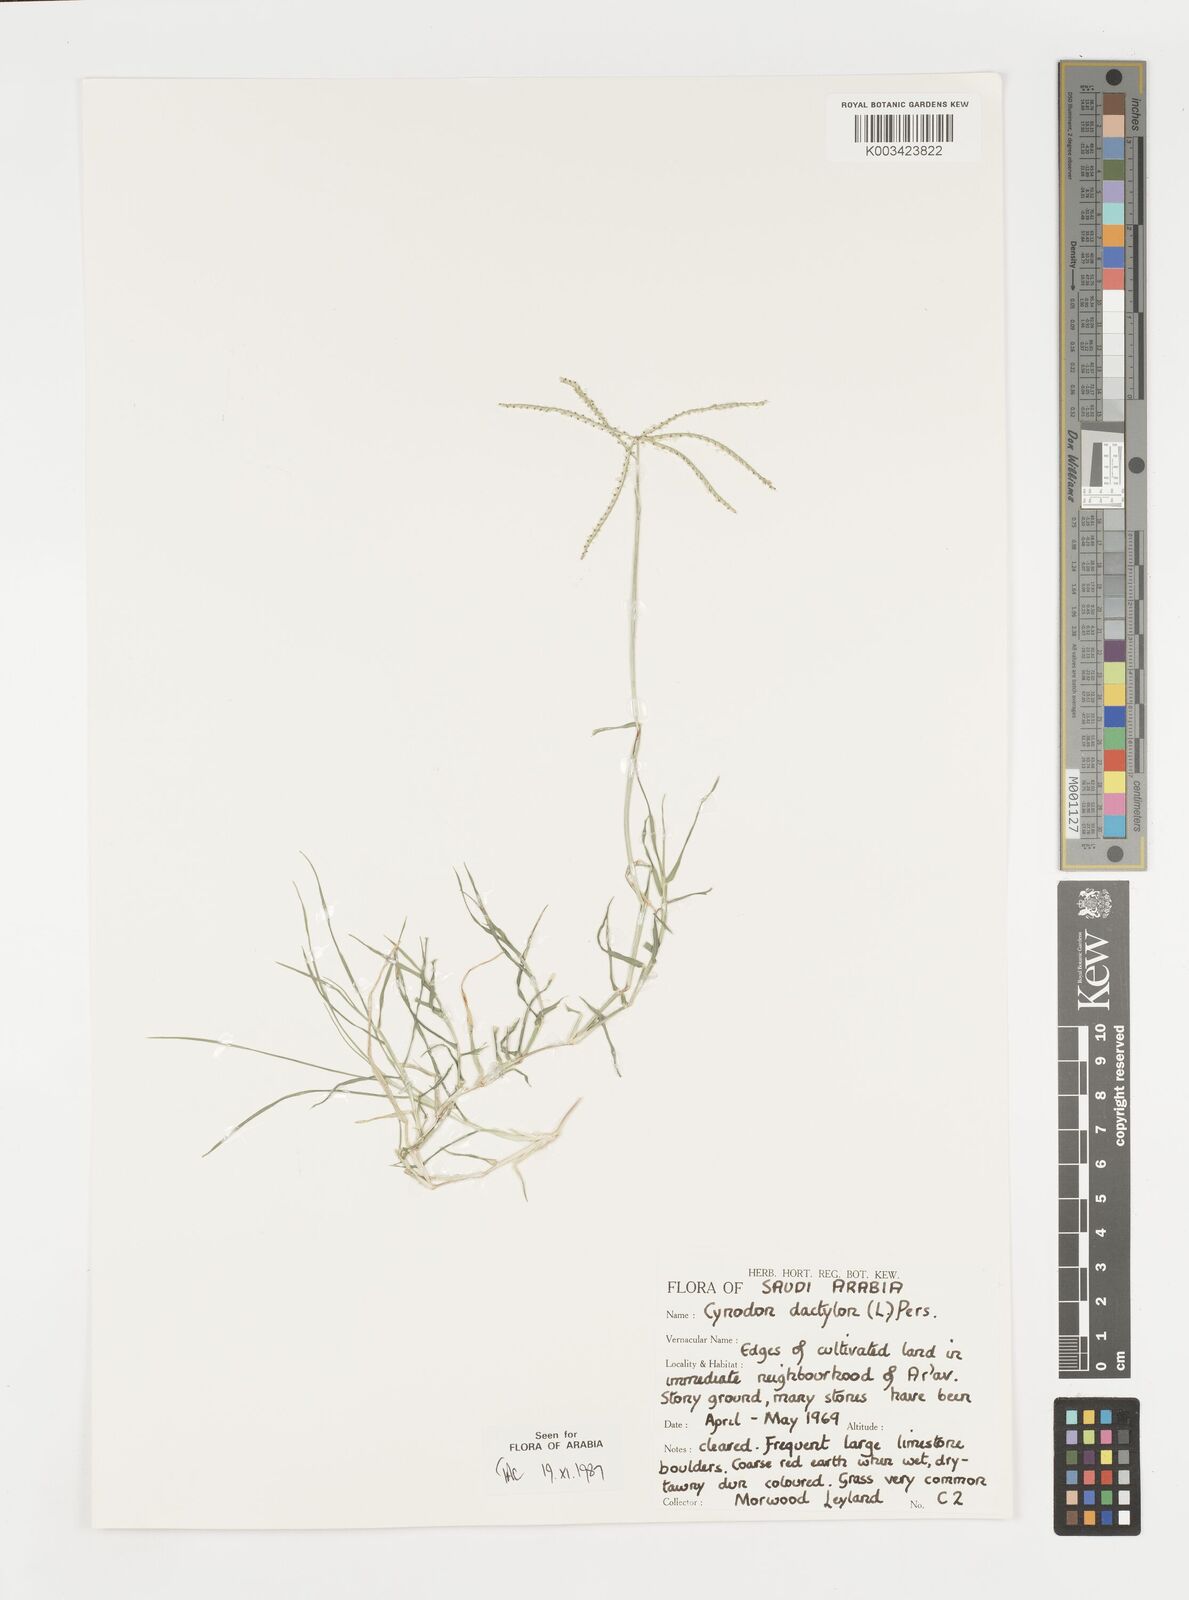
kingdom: Plantae
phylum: Tracheophyta
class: Liliopsida
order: Poales
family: Poaceae
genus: Cynodon
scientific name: Cynodon dactylon
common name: Bermuda grass
